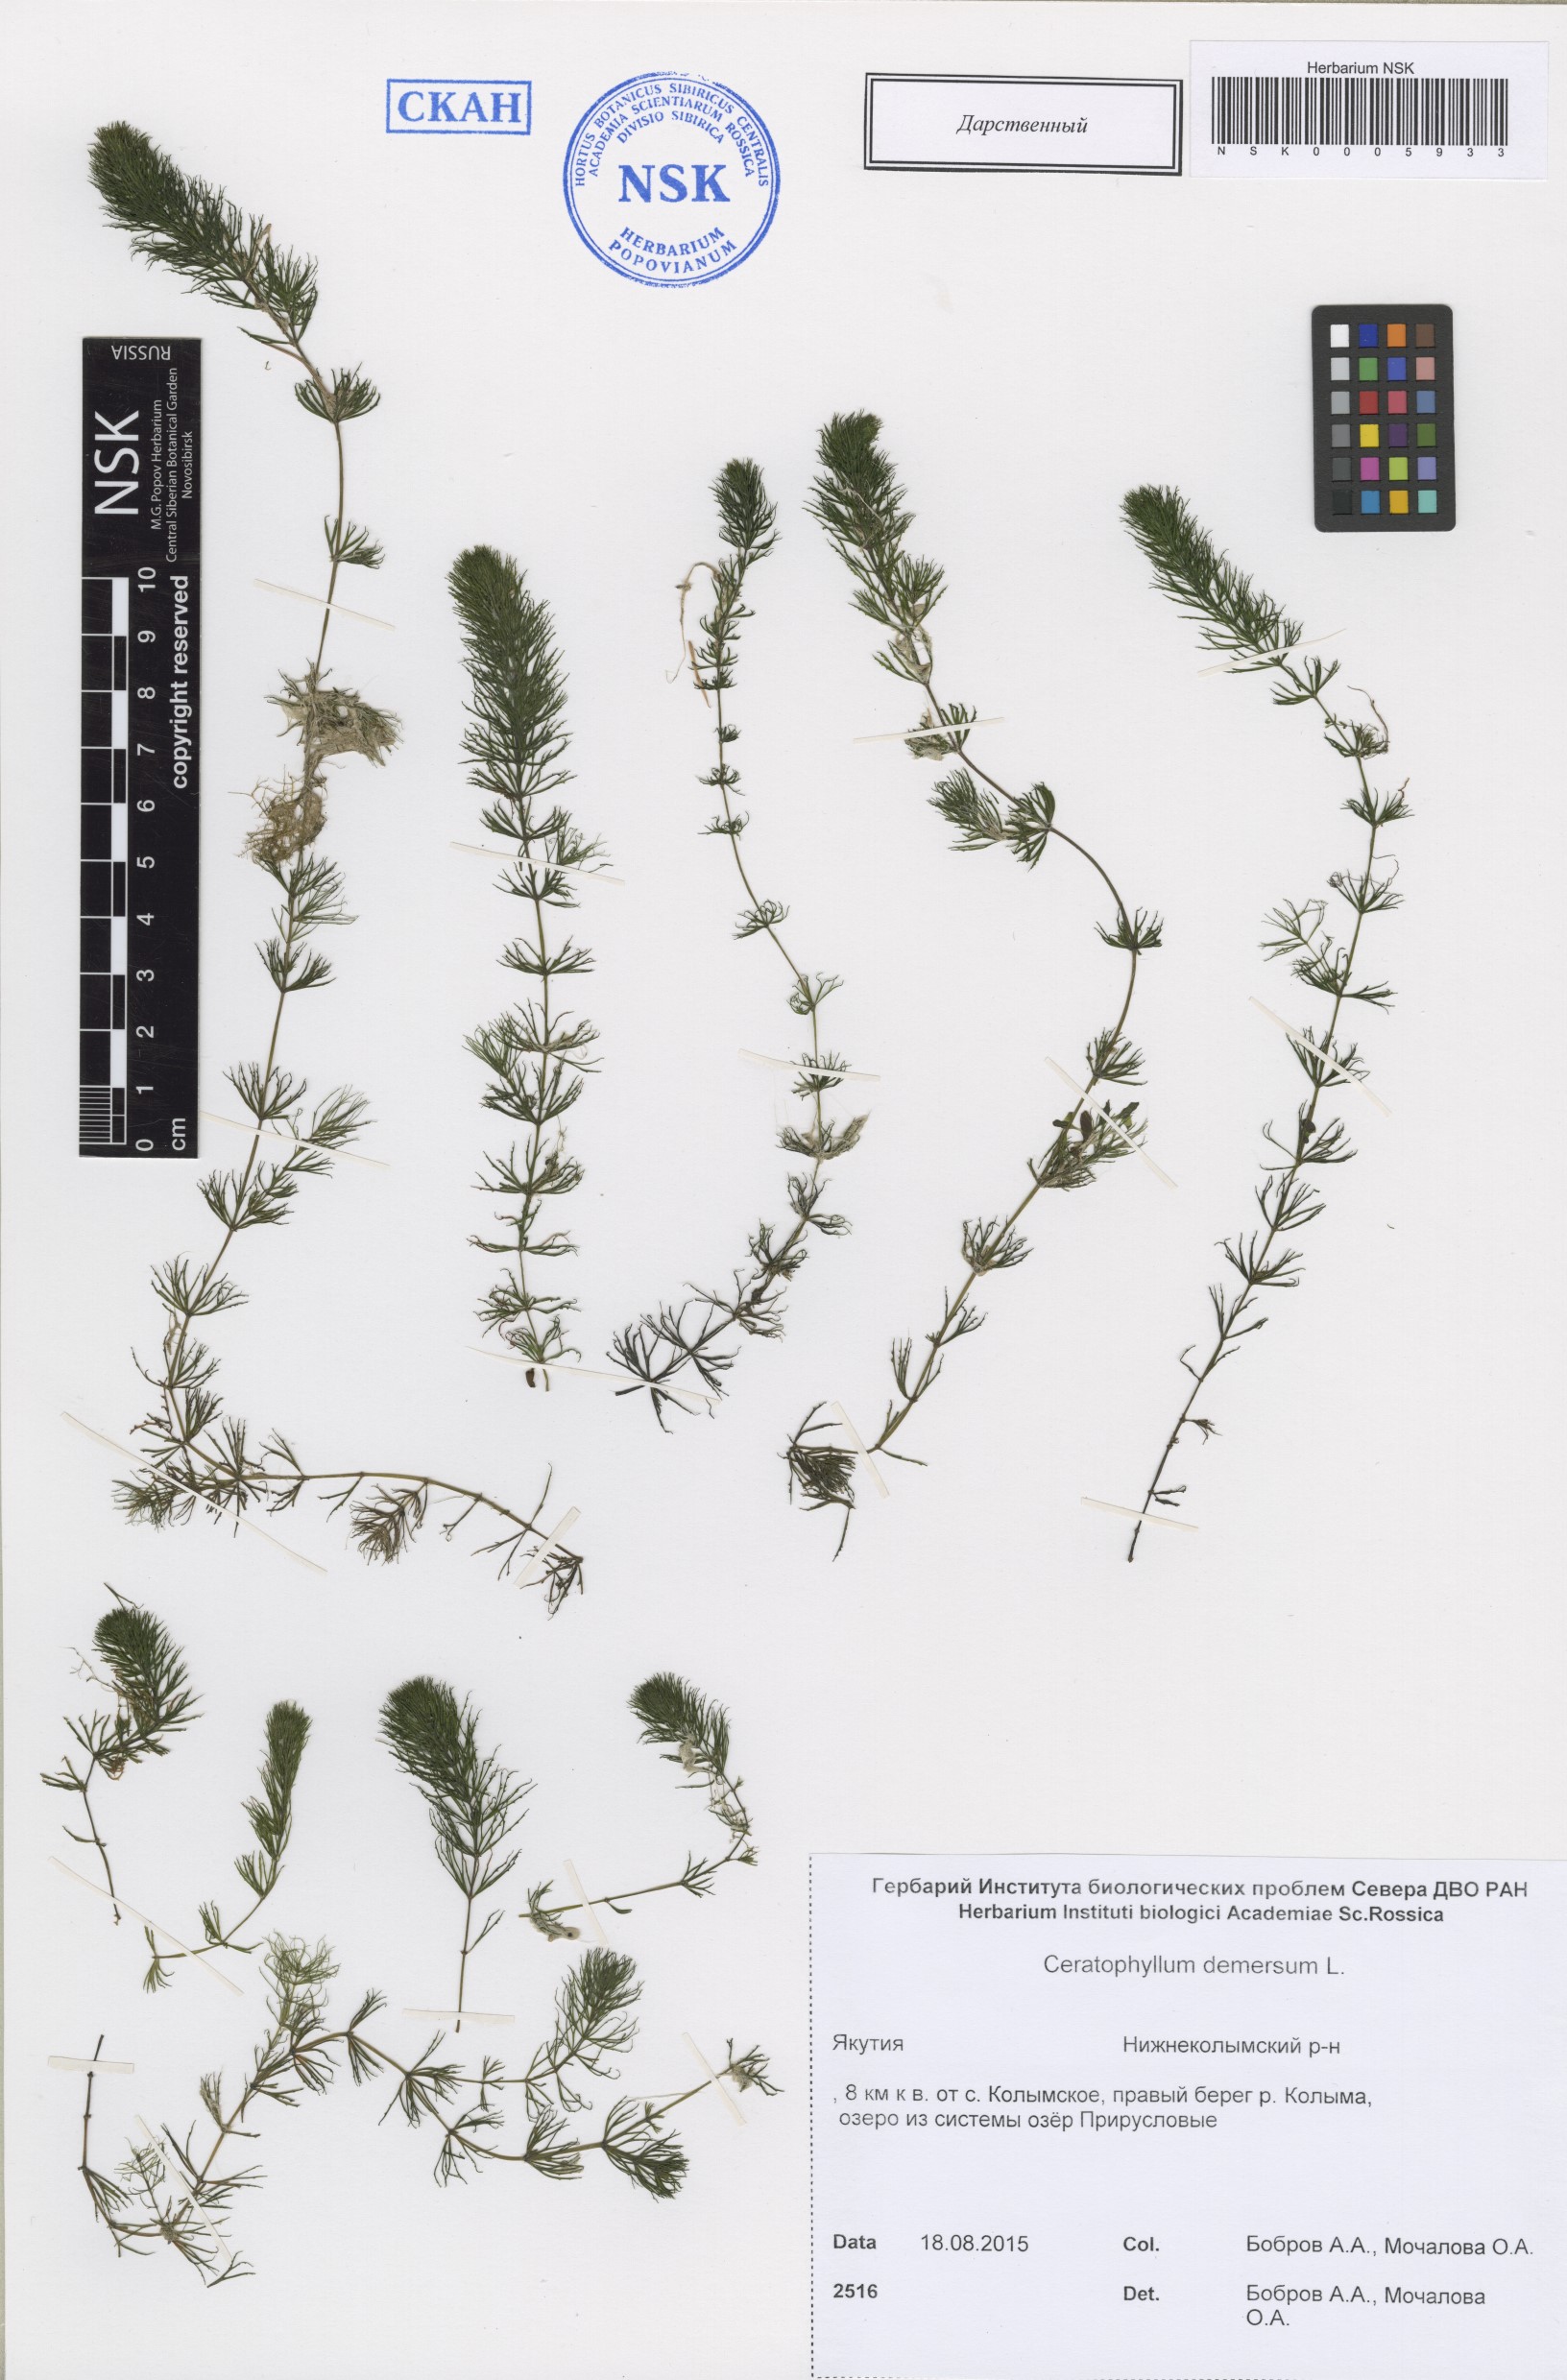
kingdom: Plantae
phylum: Tracheophyta
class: Magnoliopsida
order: Ceratophyllales
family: Ceratophyllaceae
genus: Ceratophyllum
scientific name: Ceratophyllum demersum
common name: Rigid hornwort
